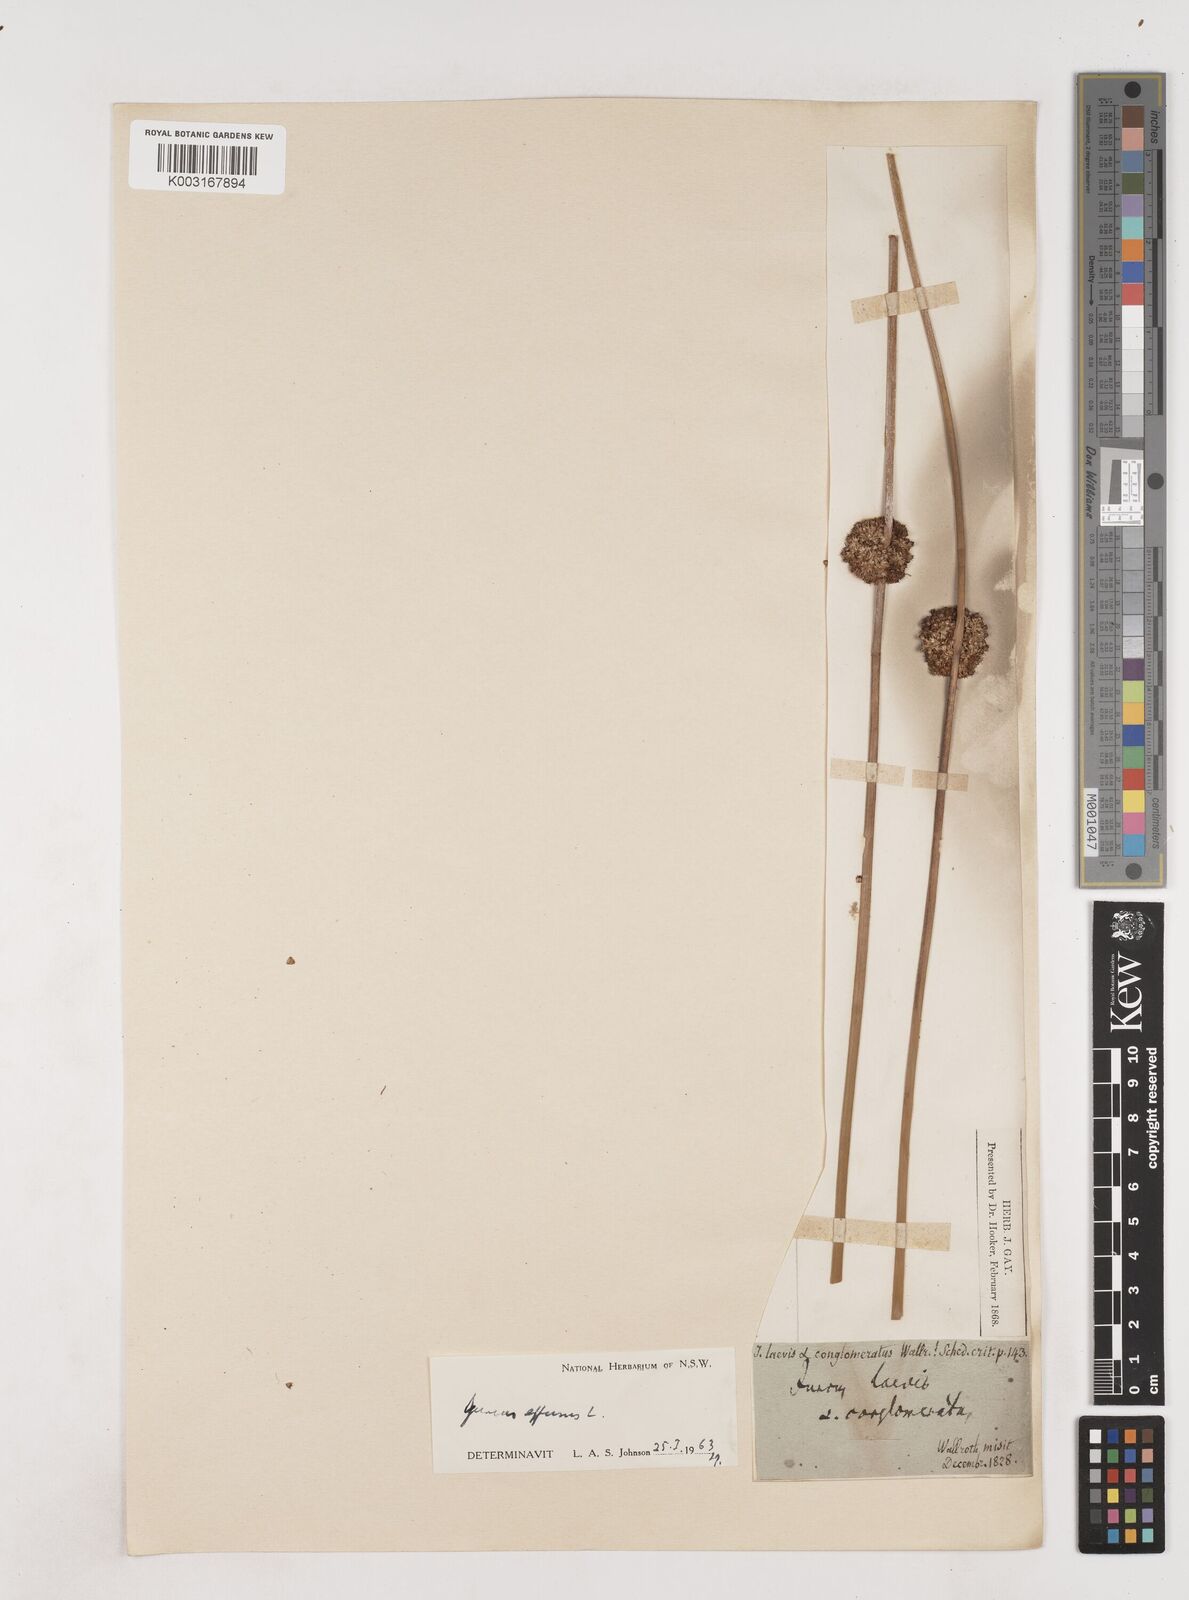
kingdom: Plantae
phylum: Tracheophyta
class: Liliopsida
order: Poales
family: Juncaceae
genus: Juncus
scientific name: Juncus effusus
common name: Soft rush
